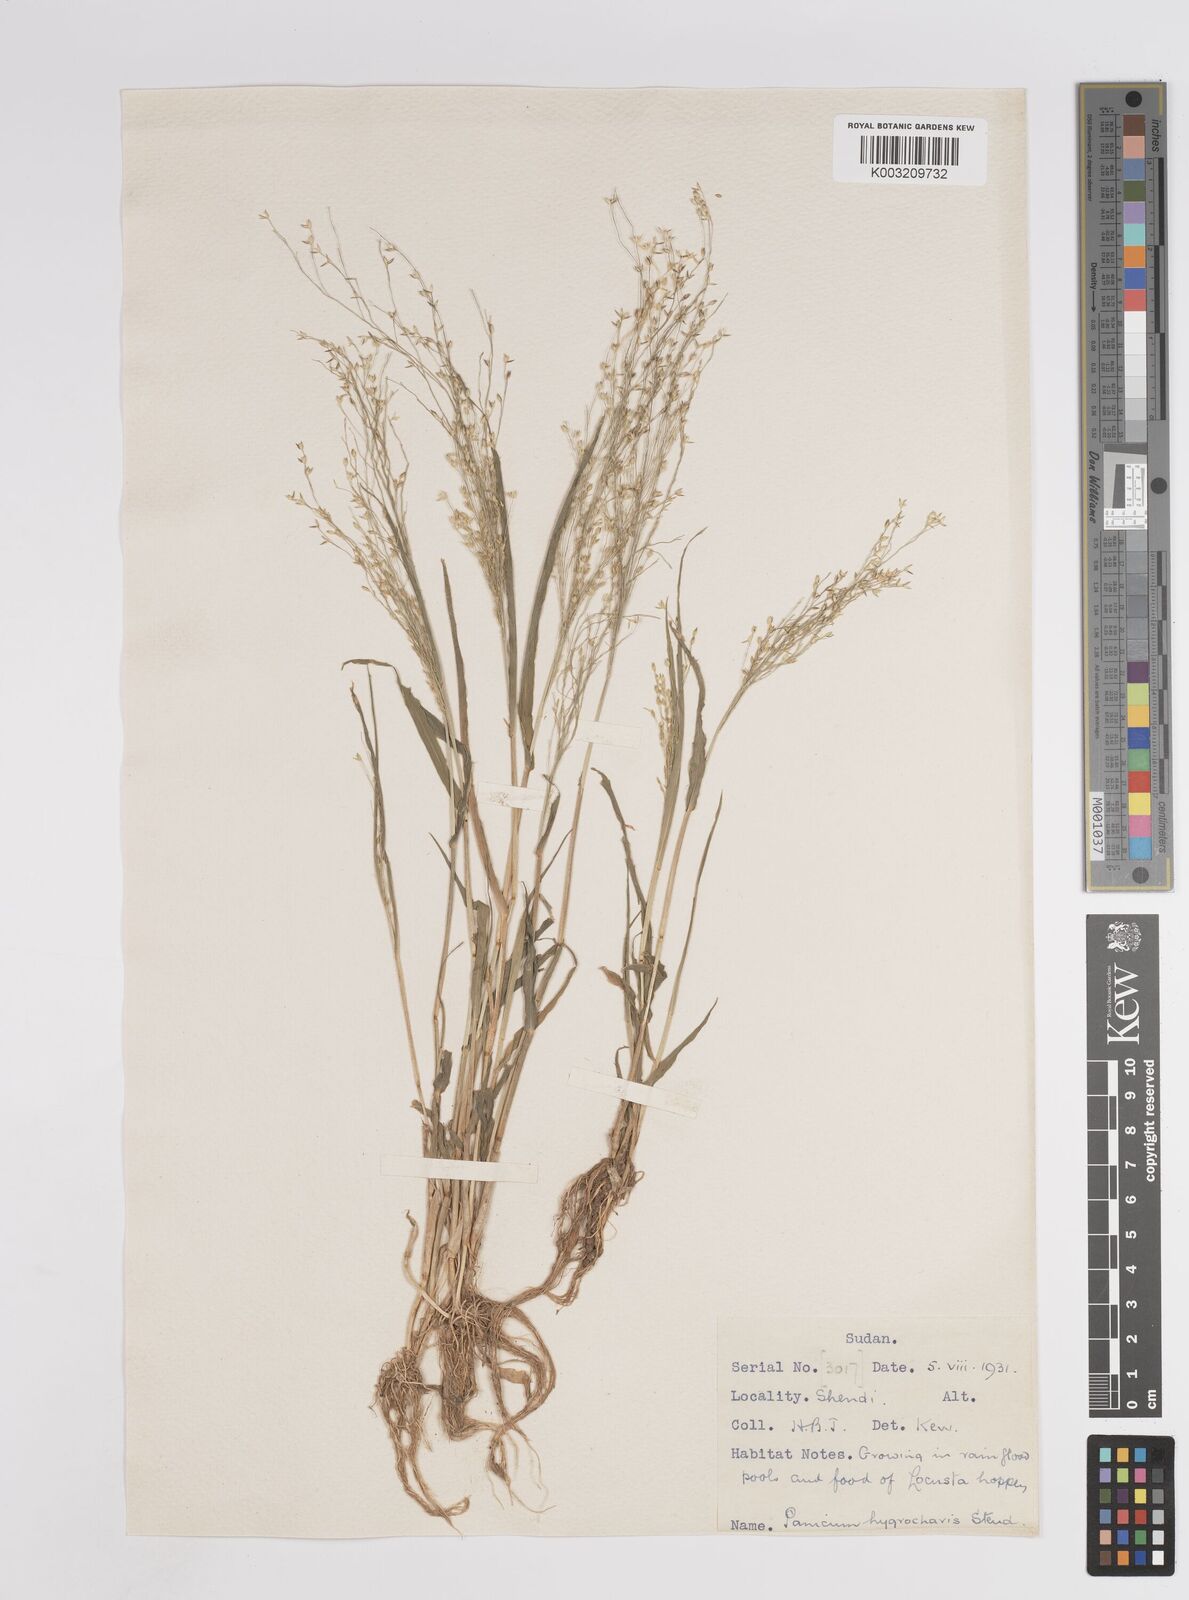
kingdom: Plantae
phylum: Tracheophyta
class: Liliopsida
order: Poales
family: Poaceae
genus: Panicum
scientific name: Panicum
